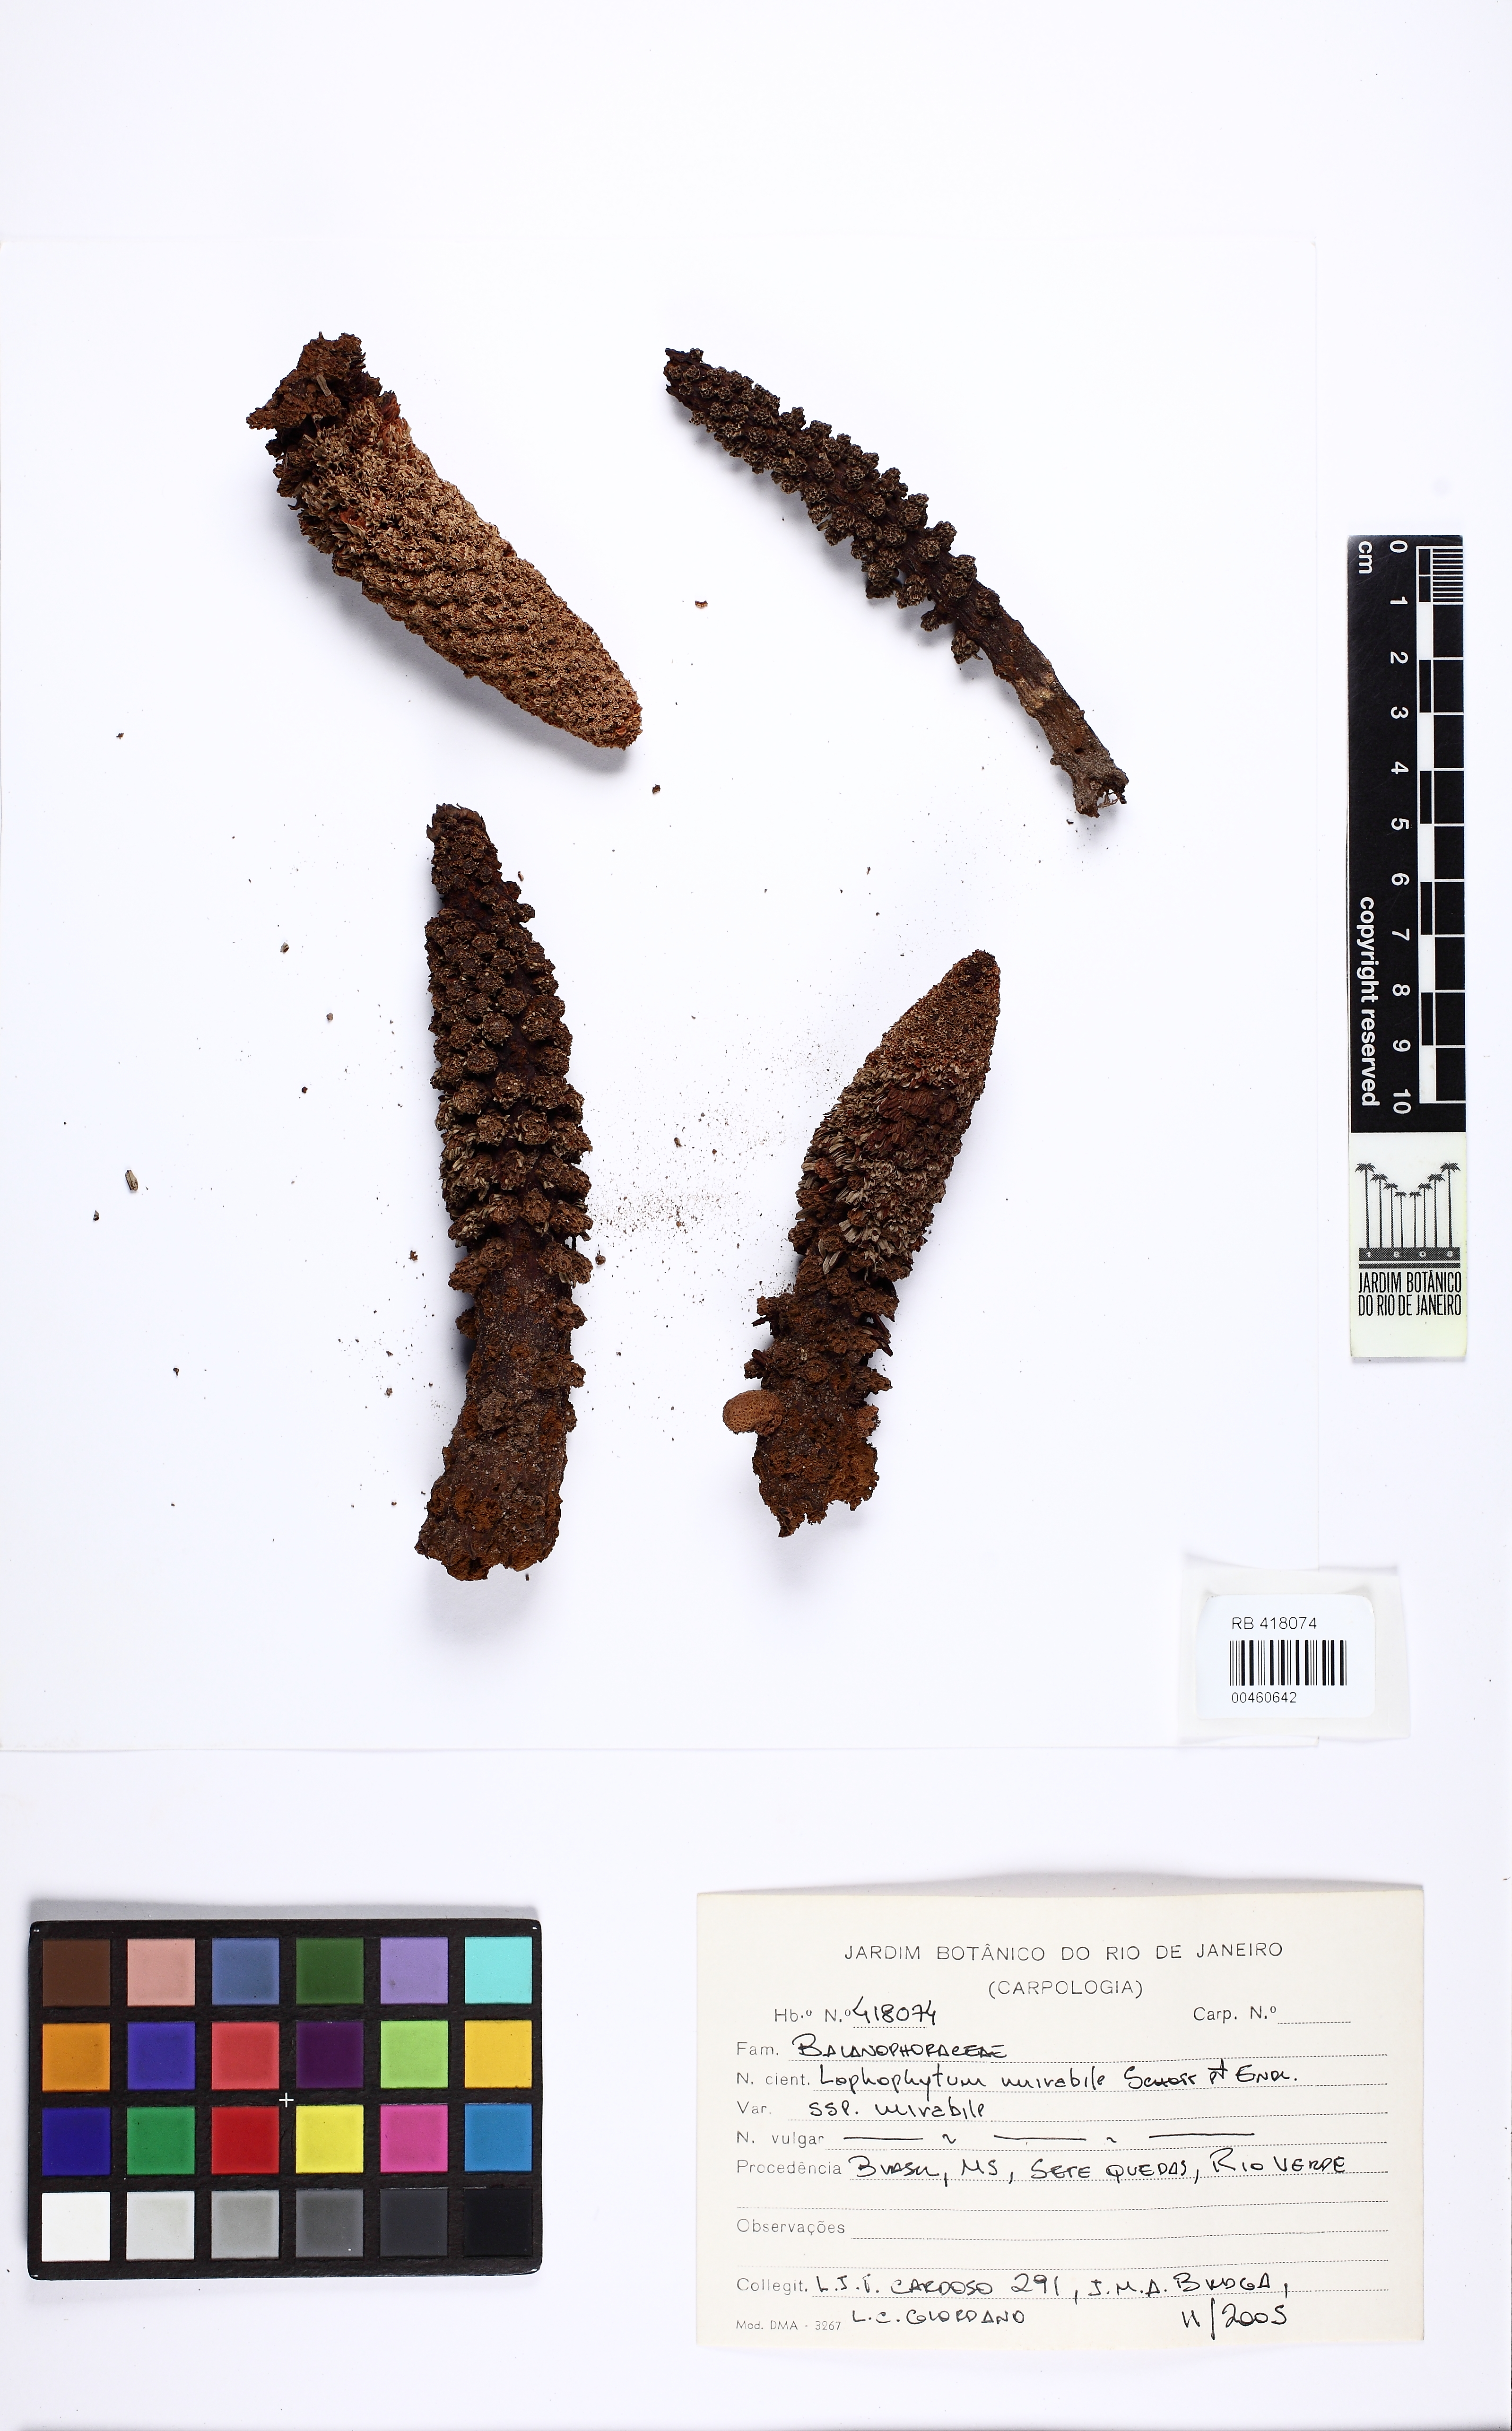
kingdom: Plantae
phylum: Tracheophyta
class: Magnoliopsida
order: Santalales
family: Balanophoraceae
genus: Lophophytum
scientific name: Lophophytum mirabile
